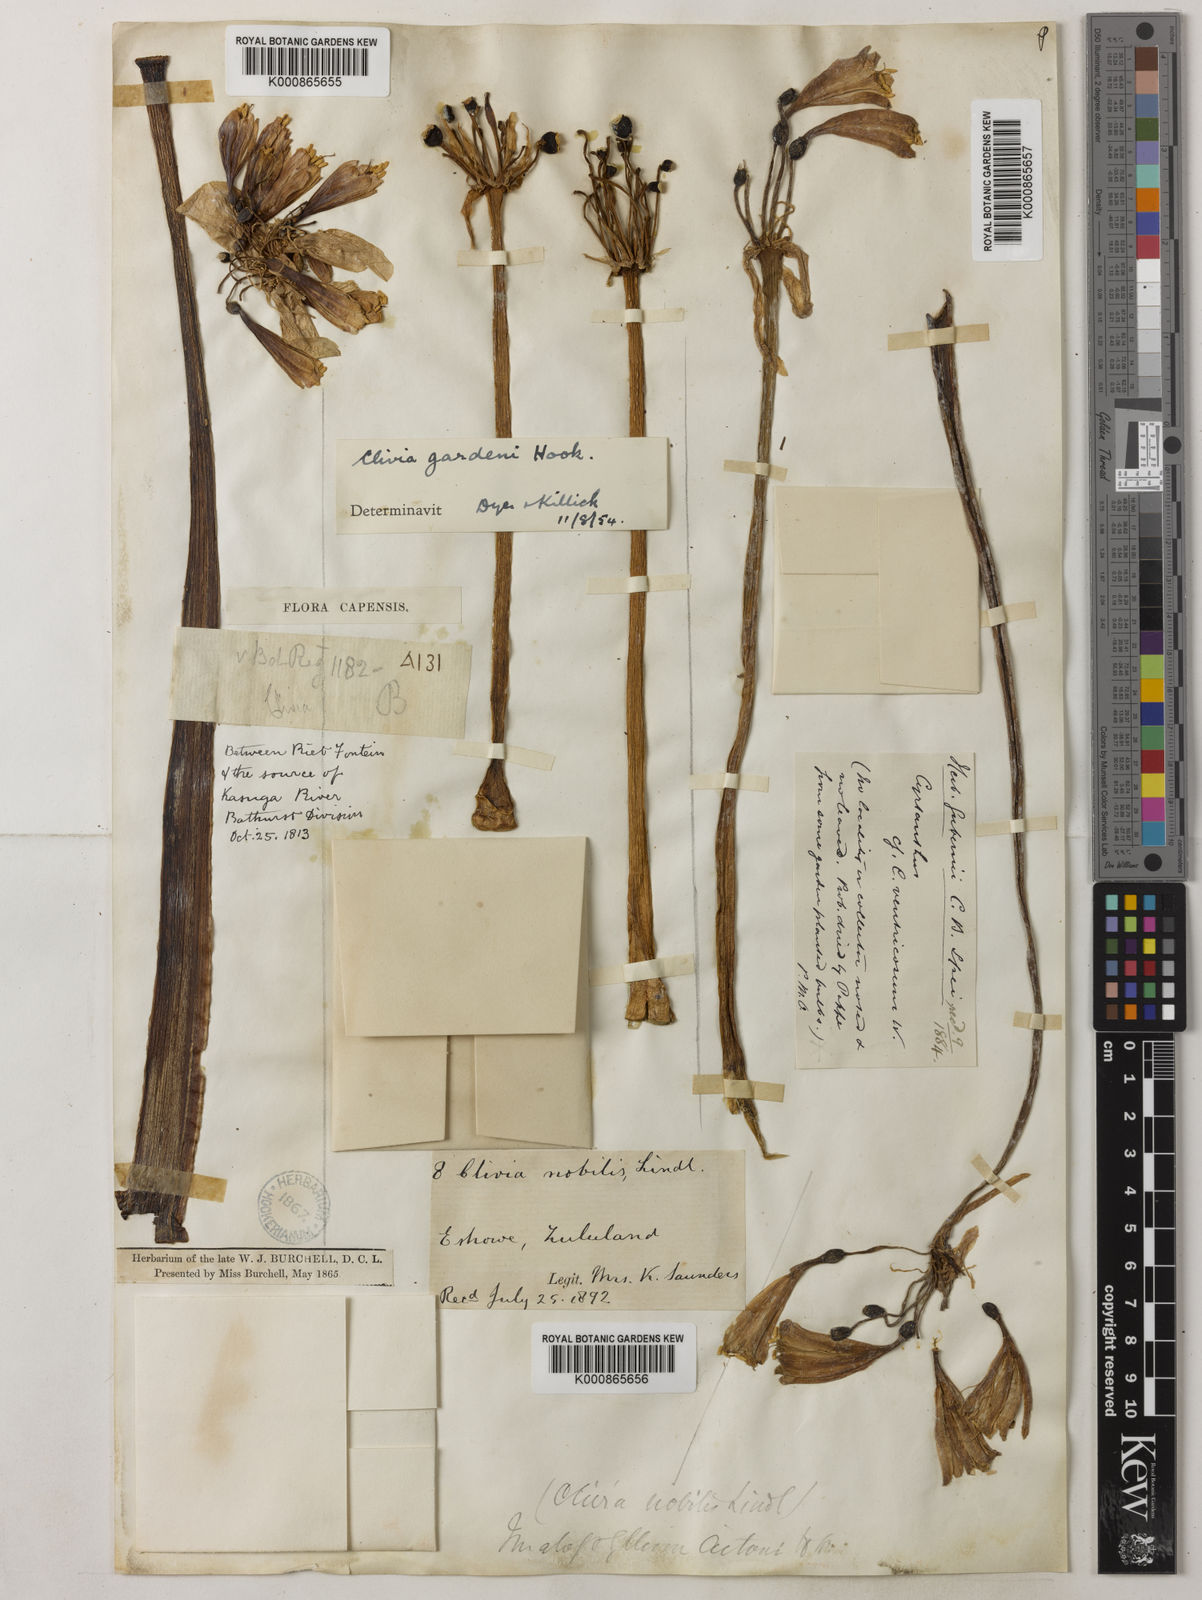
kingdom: Plantae
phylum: Tracheophyta
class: Liliopsida
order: Asparagales
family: Amaryllidaceae
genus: Clivia
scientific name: Clivia nobilis
